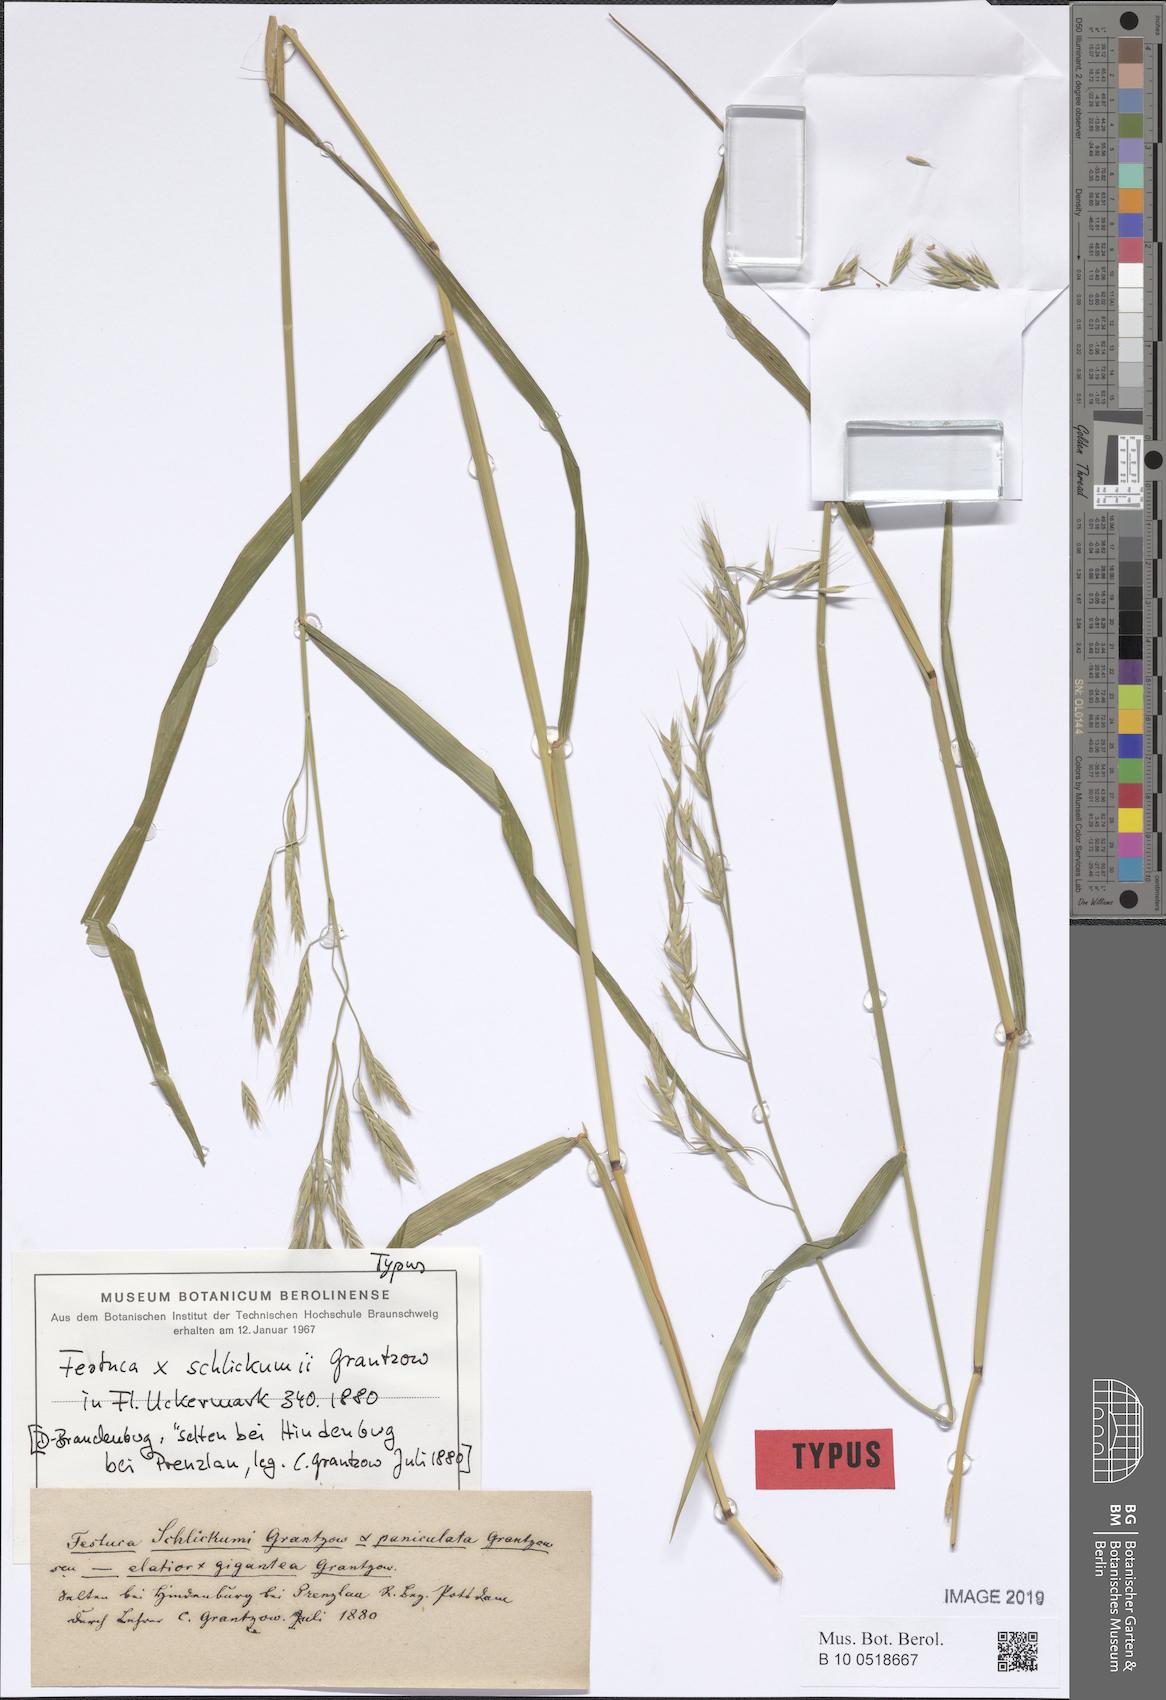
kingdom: Plantae
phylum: Tracheophyta
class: Liliopsida
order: Poales
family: Poaceae
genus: Lolium
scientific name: Lolium schlickumii
